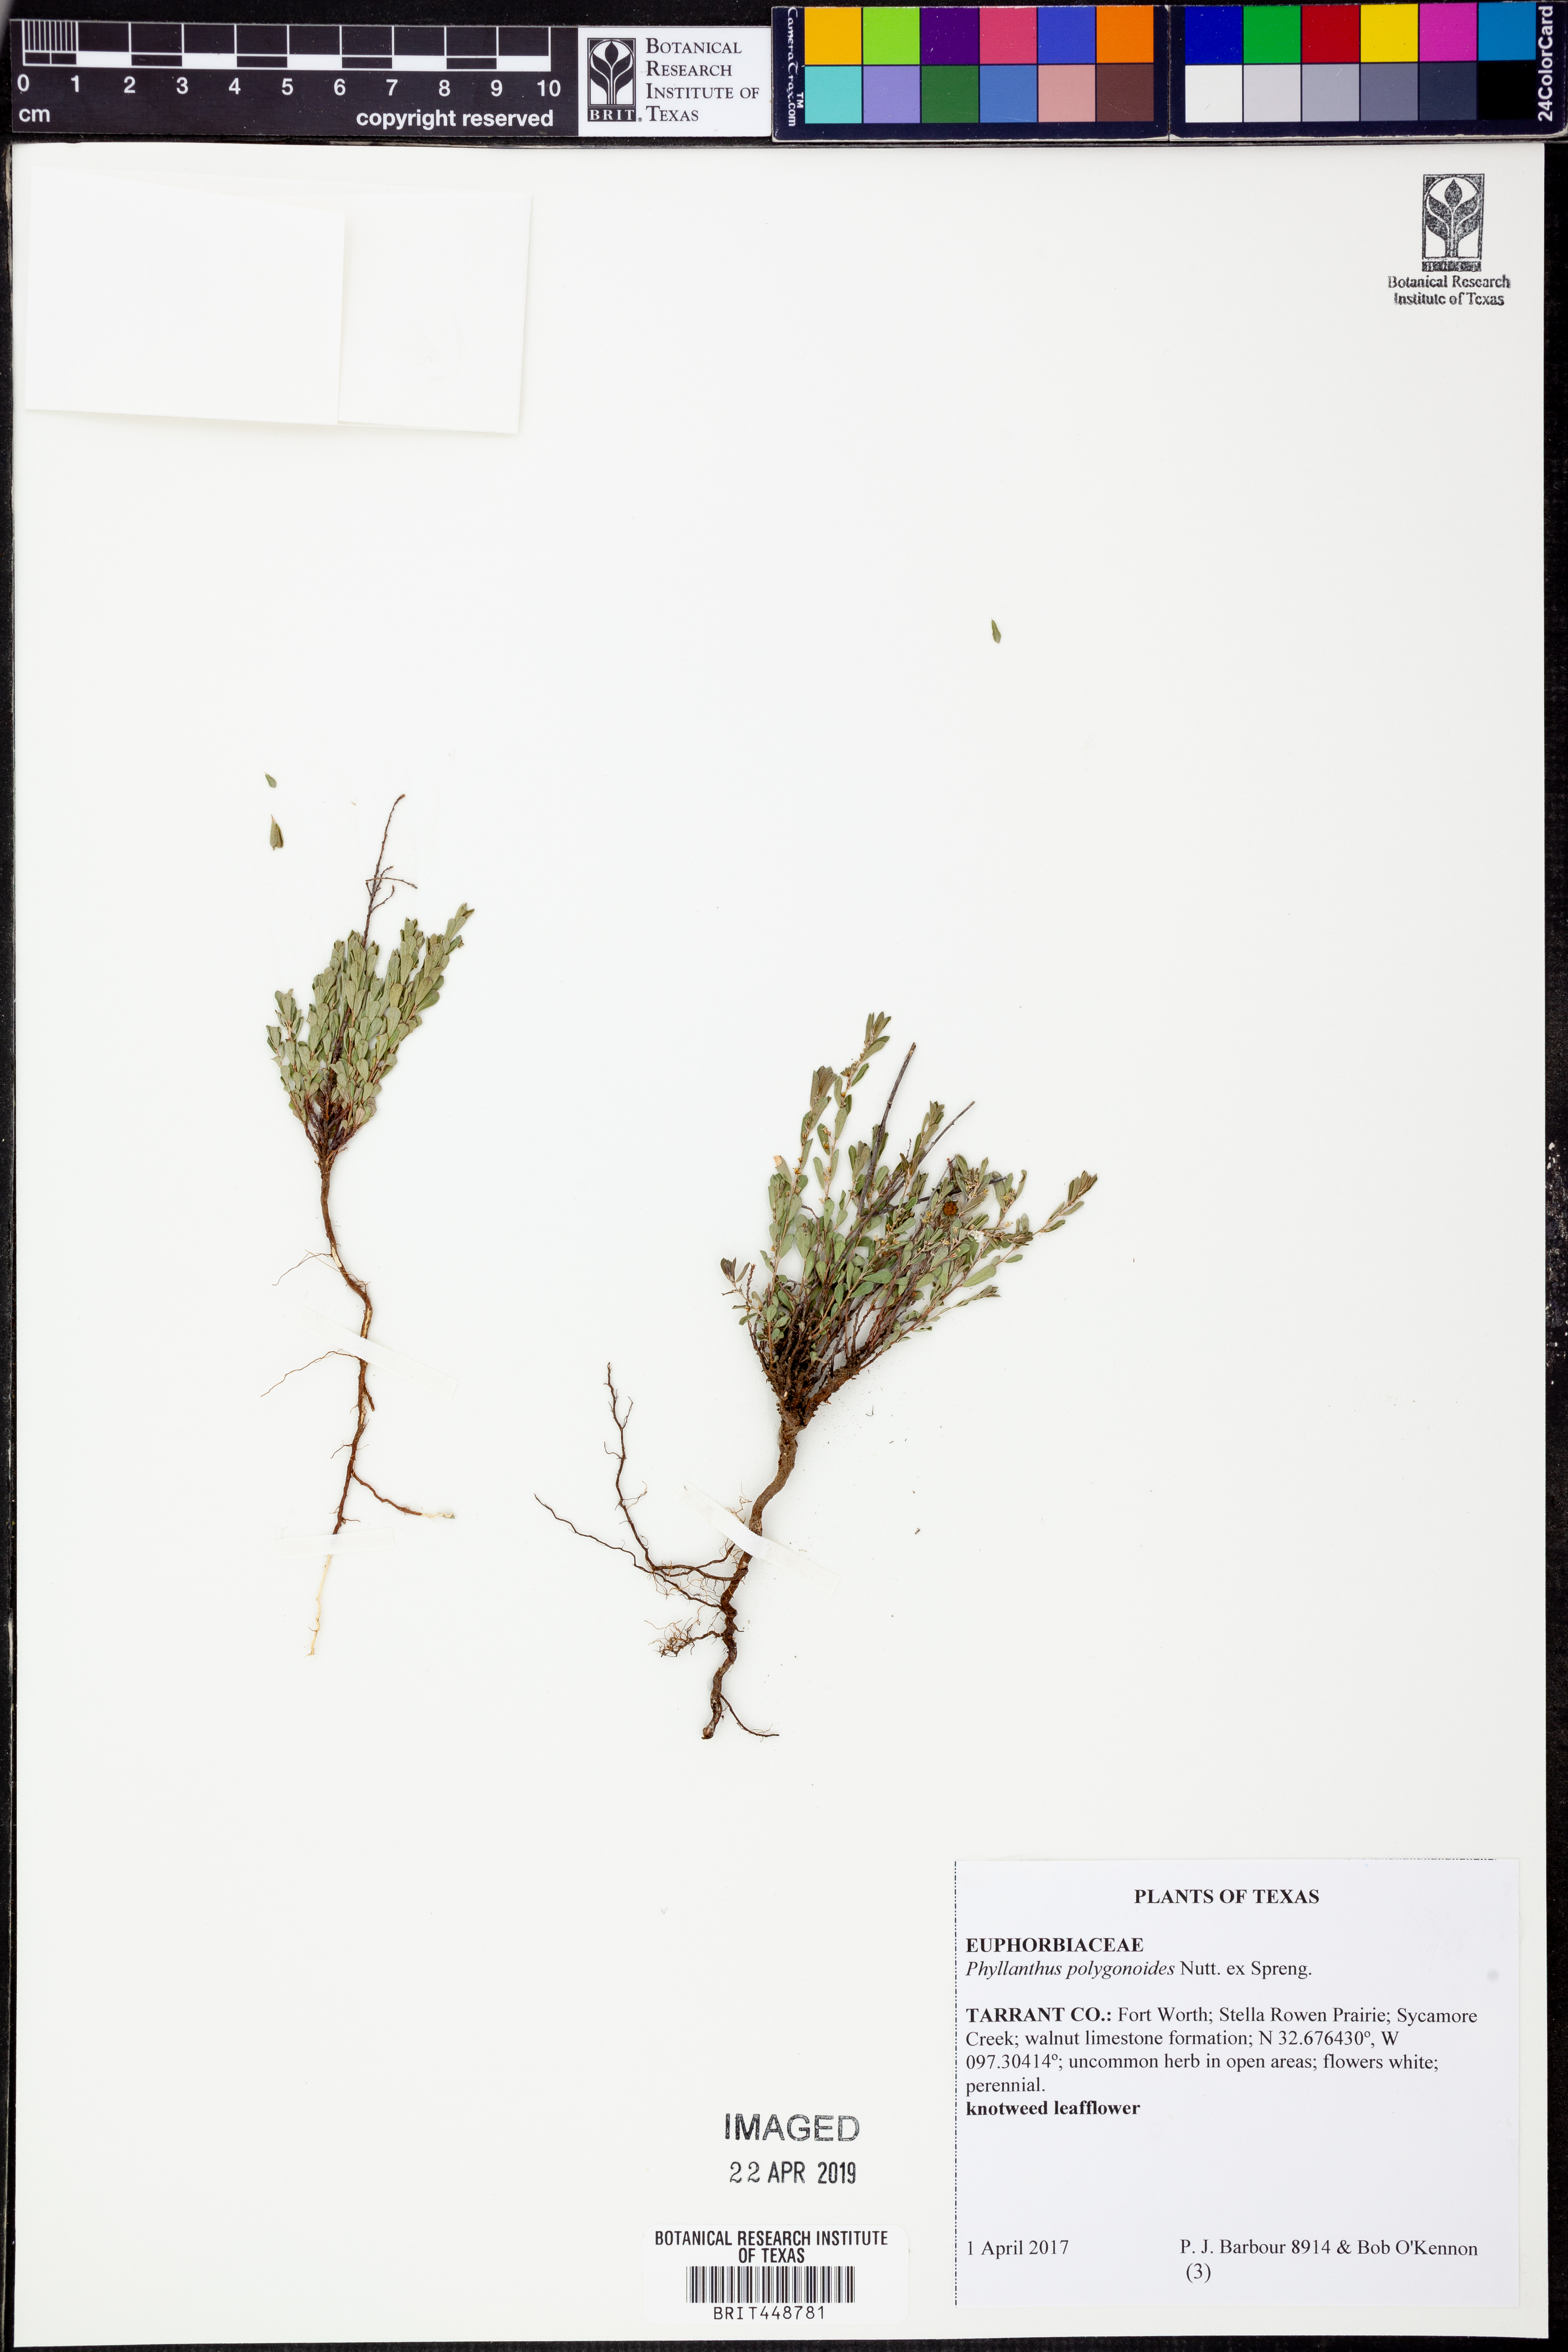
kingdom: Plantae
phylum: Tracheophyta
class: Magnoliopsida
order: Malpighiales
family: Phyllanthaceae
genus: Phyllanthus
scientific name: Phyllanthus polygonoides
